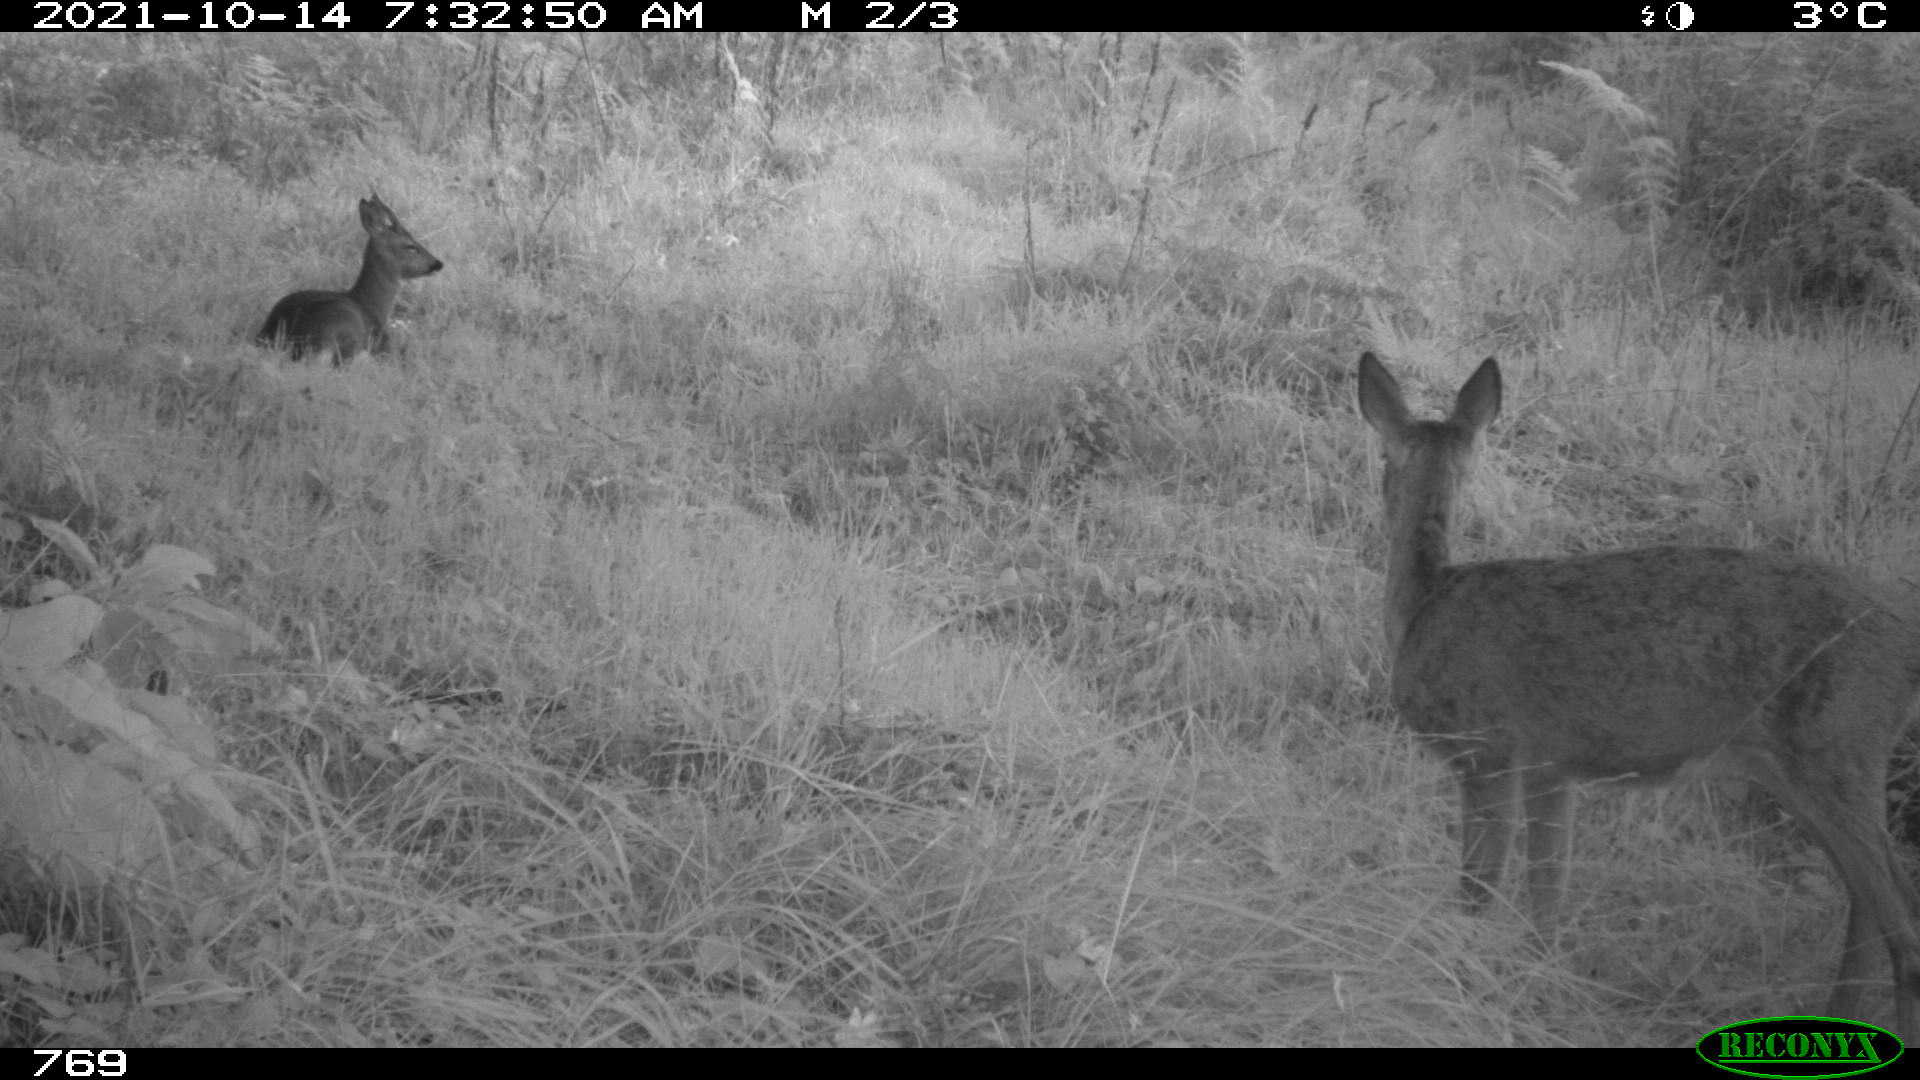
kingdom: Animalia
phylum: Chordata
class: Mammalia
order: Artiodactyla
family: Cervidae
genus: Capreolus
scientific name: Capreolus capreolus
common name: Western roe deer
